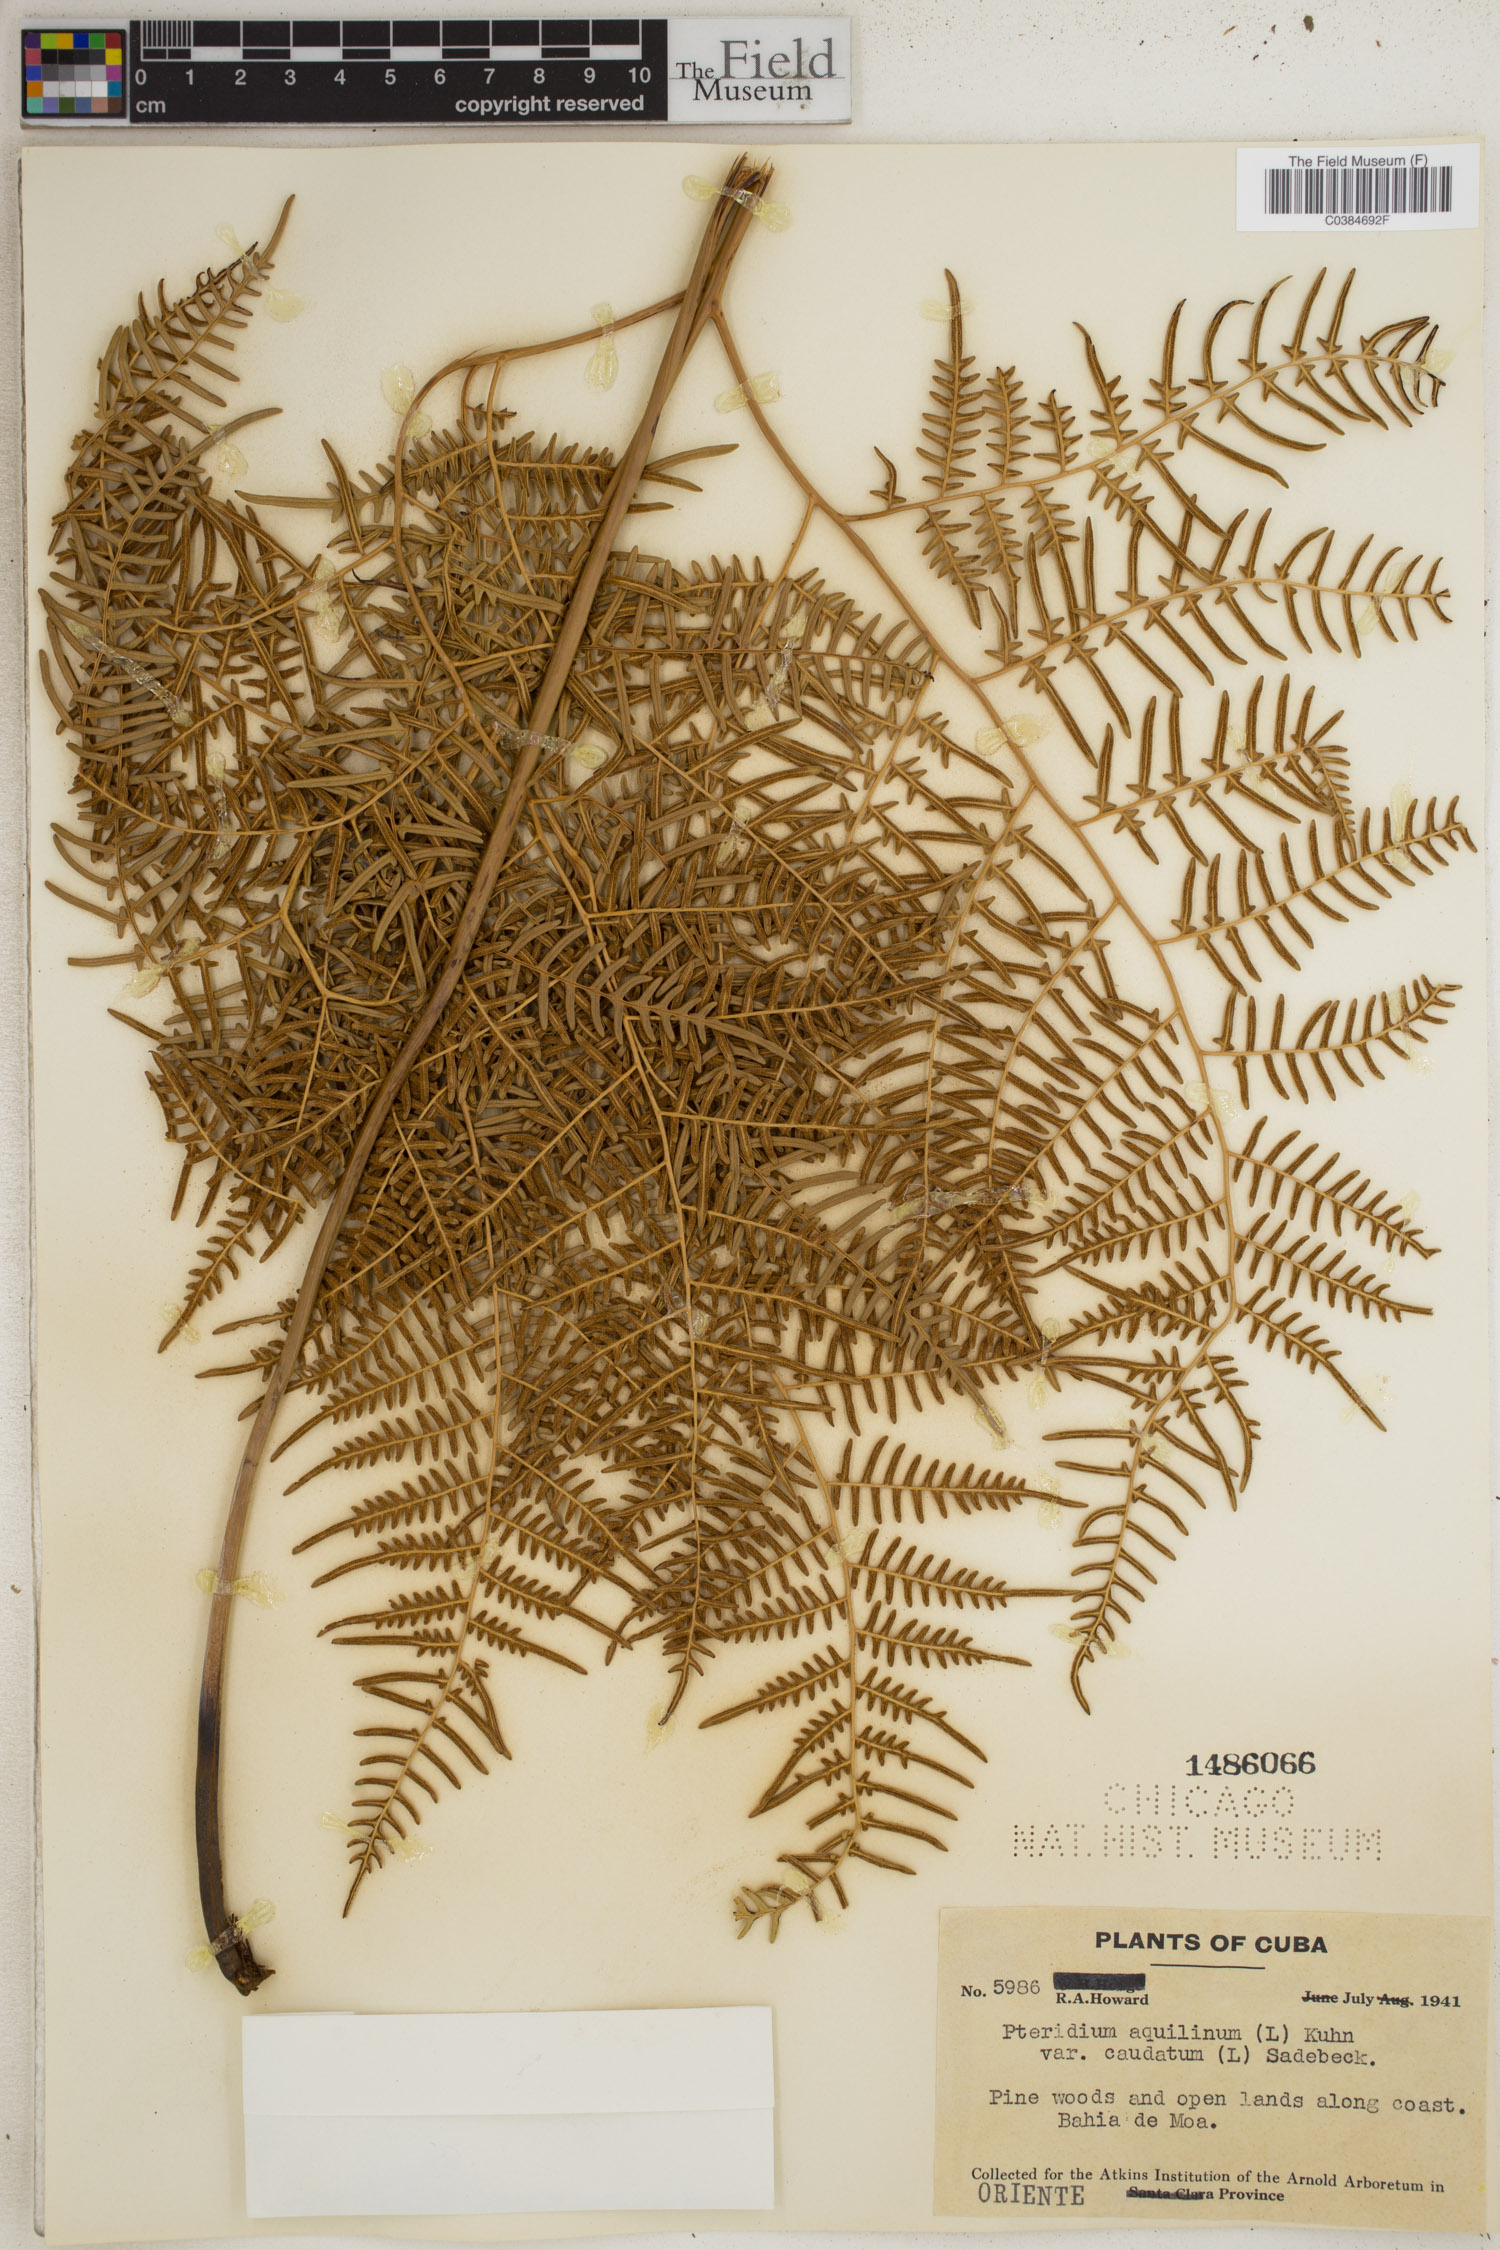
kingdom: Plantae
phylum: Tracheophyta
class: Polypodiopsida
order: Polypodiales
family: Dennstaedtiaceae
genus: Pteridium
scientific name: Pteridium caudatum
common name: Southern bracken fern
